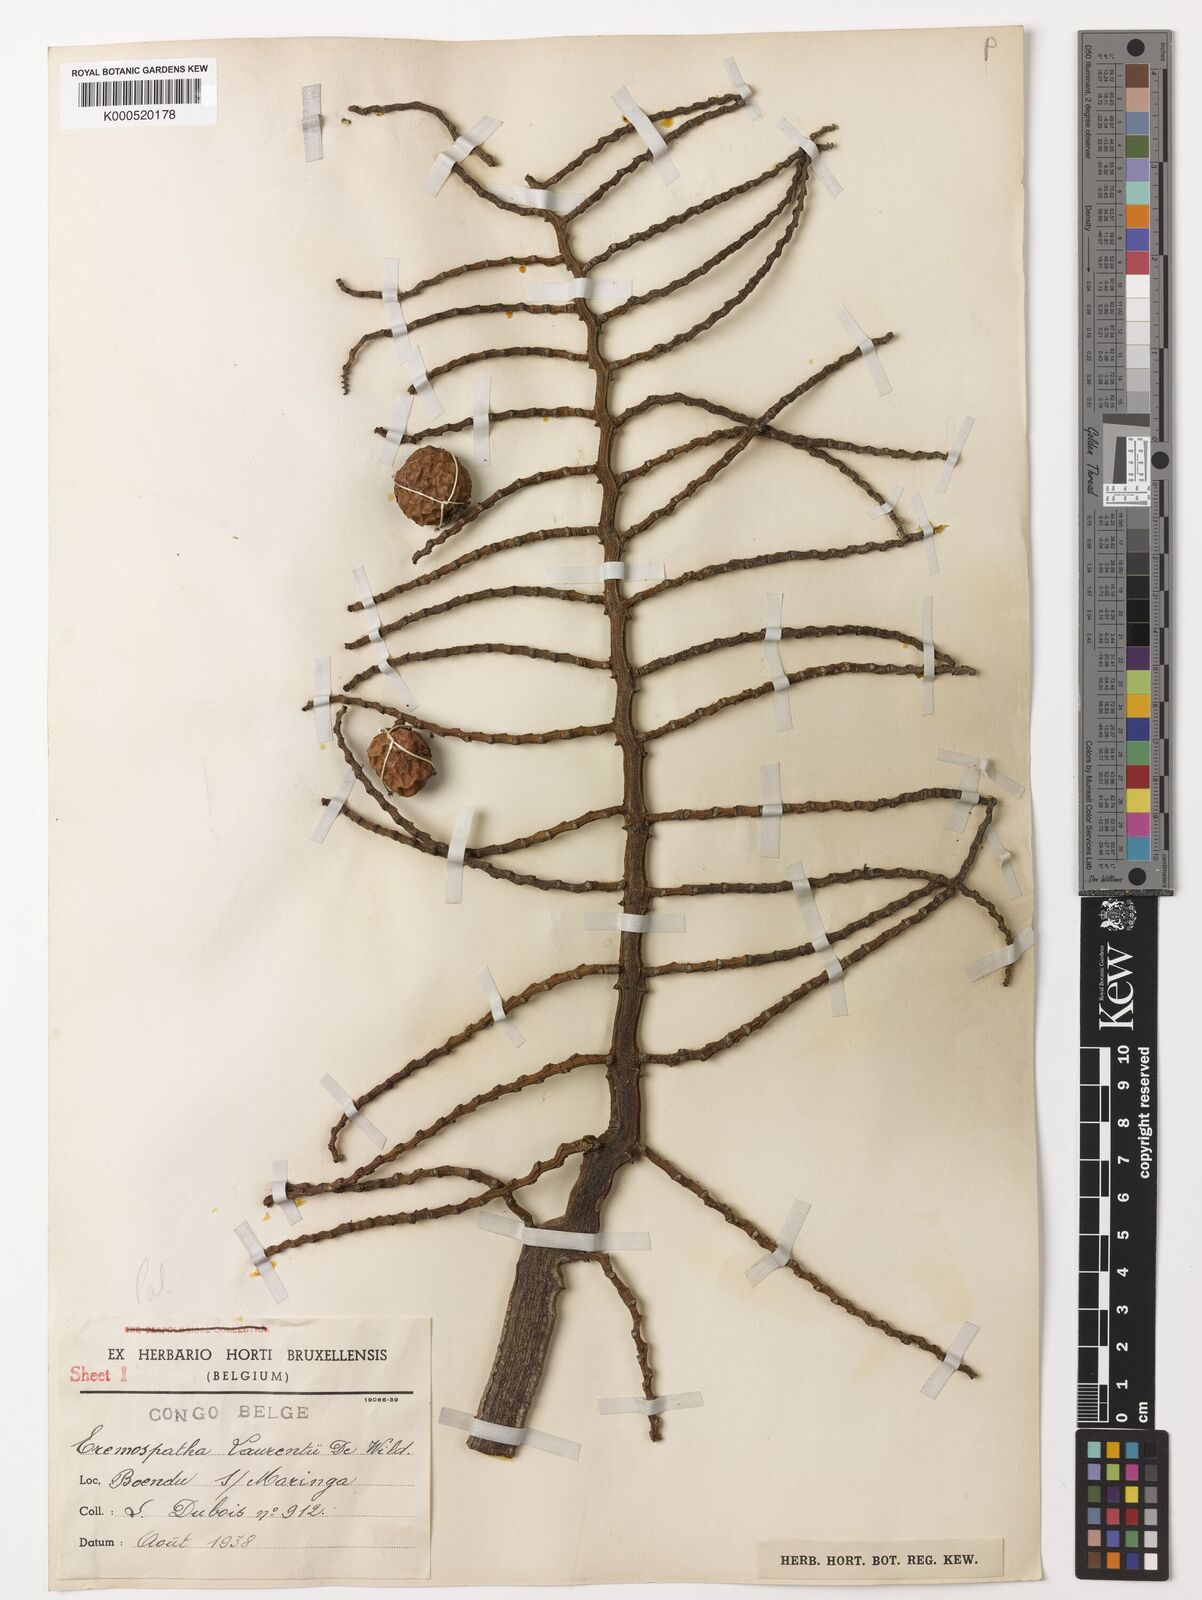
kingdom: Plantae
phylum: Tracheophyta
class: Liliopsida
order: Arecales
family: Arecaceae
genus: Eremospatha
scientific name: Eremospatha laurentii
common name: Rattan palm
